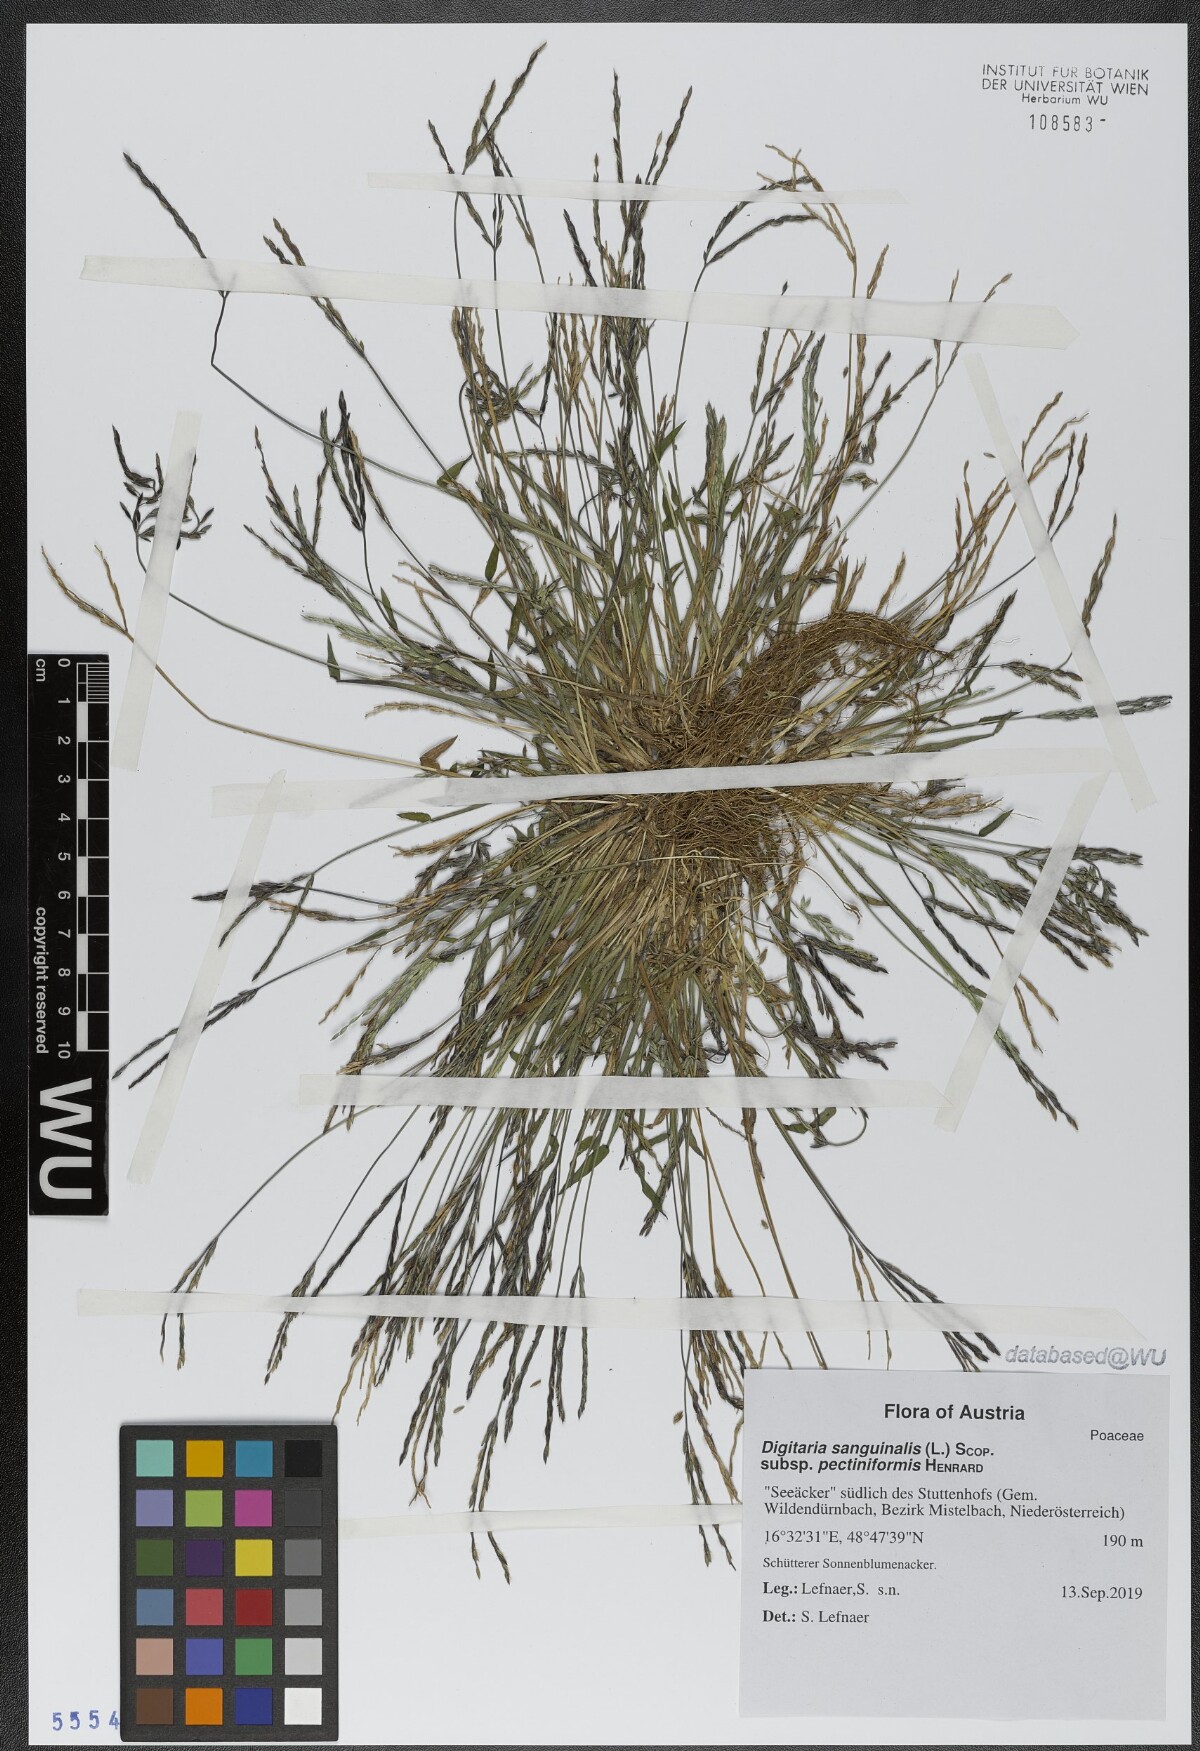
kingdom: Plantae
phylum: Tracheophyta
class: Liliopsida
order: Poales
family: Poaceae
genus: Digitaria
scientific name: Digitaria sanguinalis
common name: Hairy crabgrass
